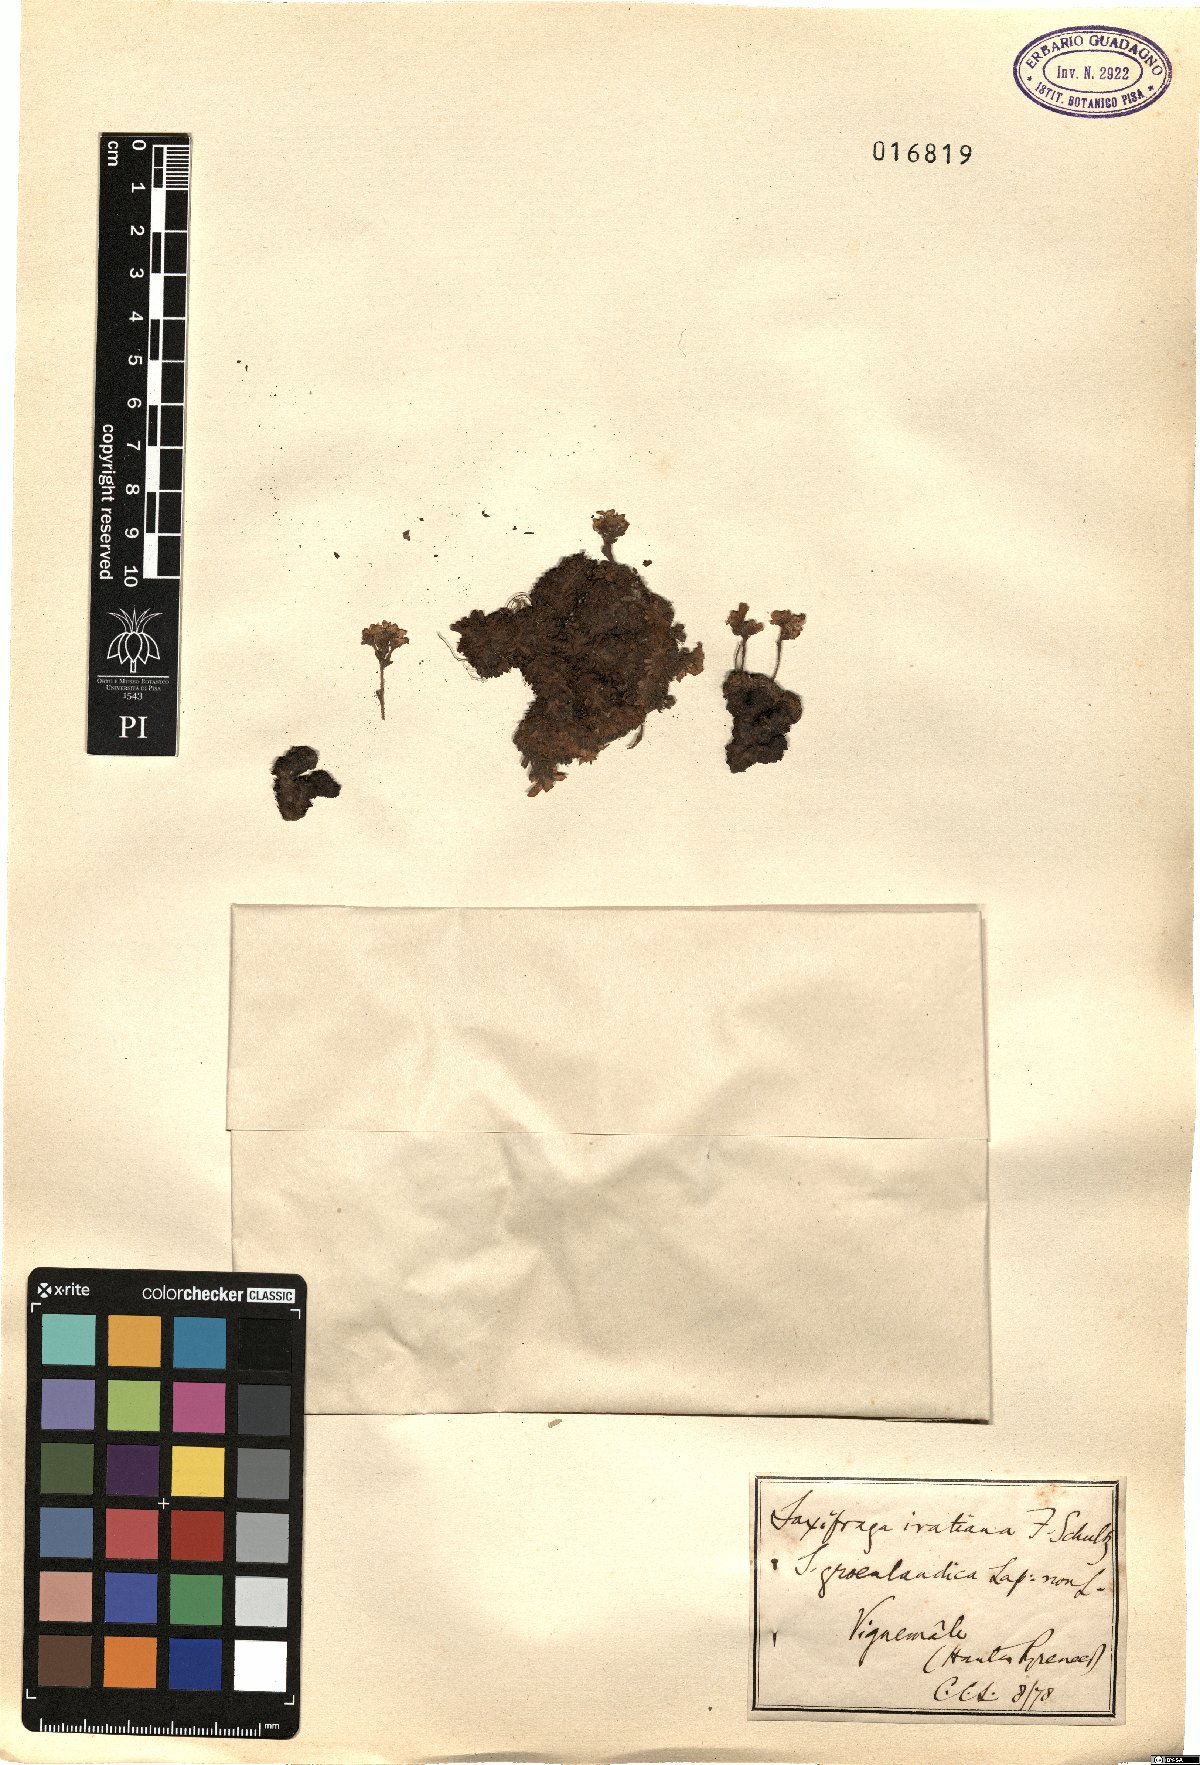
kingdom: Plantae
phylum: Tracheophyta
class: Magnoliopsida
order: Saxifragales
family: Saxifragaceae
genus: Saxifraga
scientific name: Saxifraga pubescens
